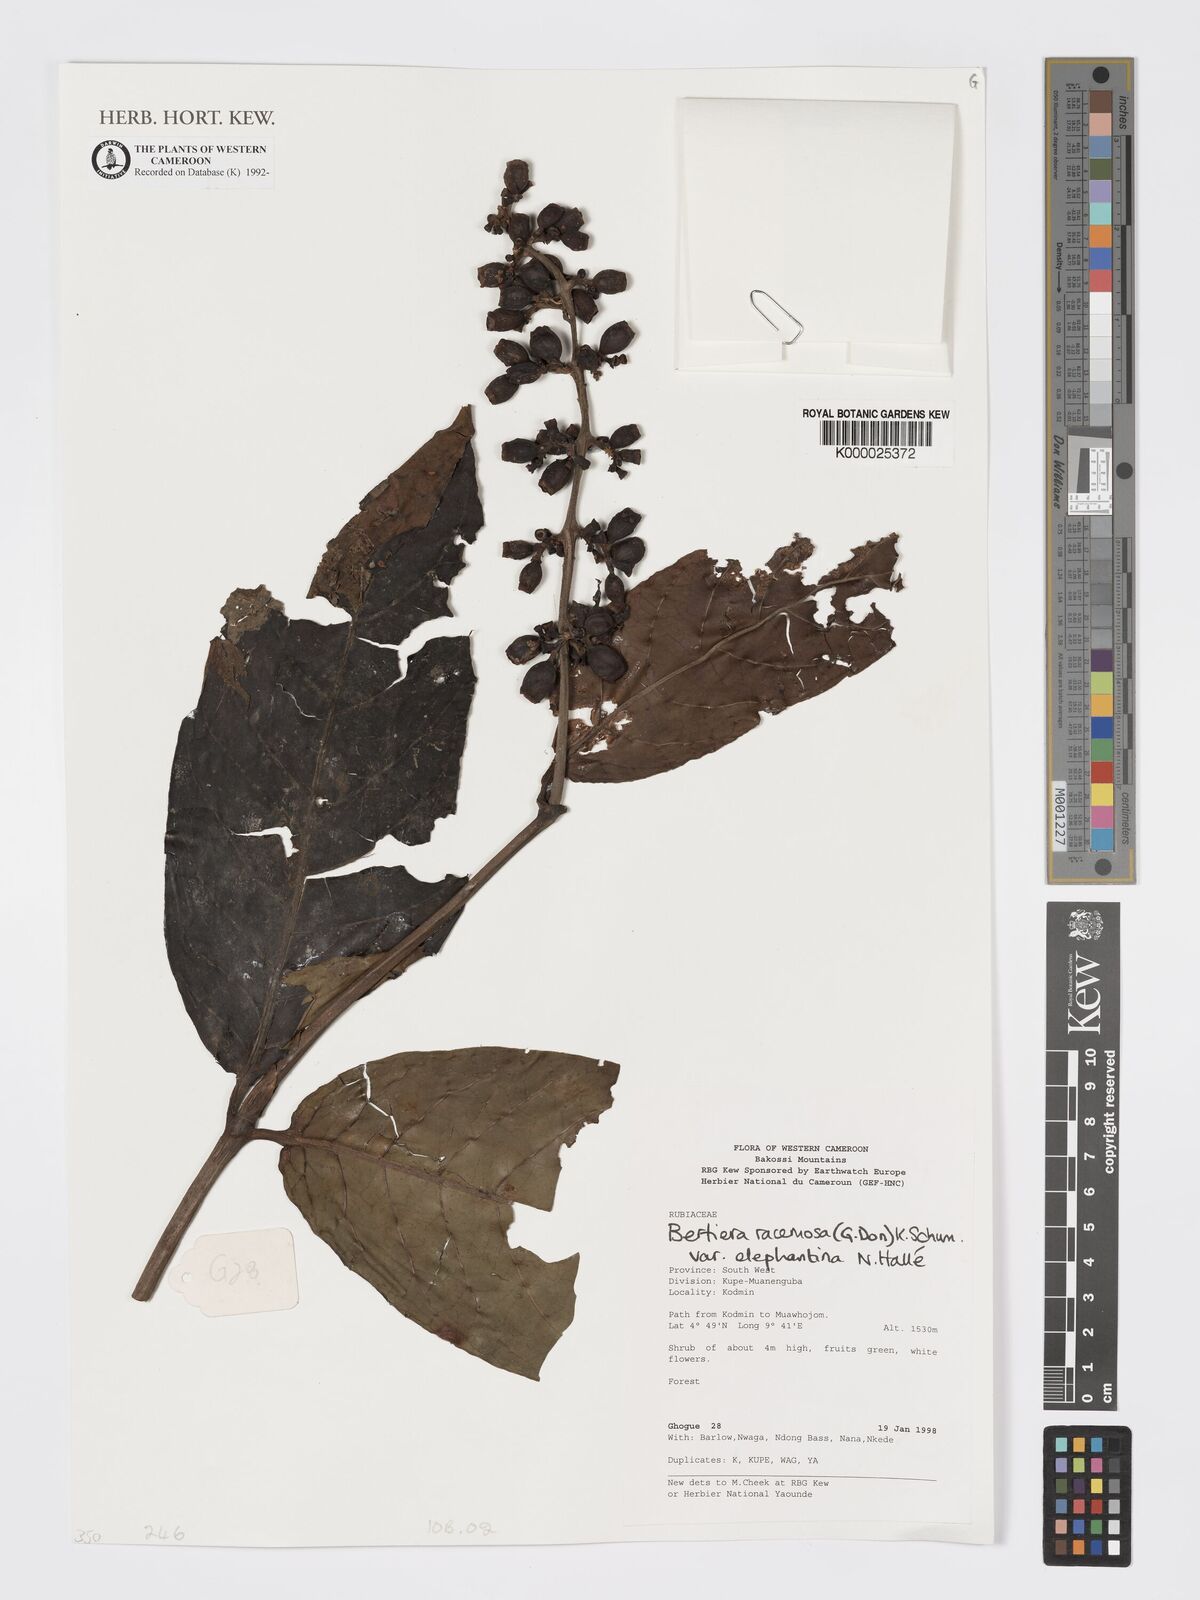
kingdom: Plantae
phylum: Tracheophyta
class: Magnoliopsida
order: Gentianales
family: Rubiaceae
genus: Bertiera
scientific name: Bertiera racemosa
